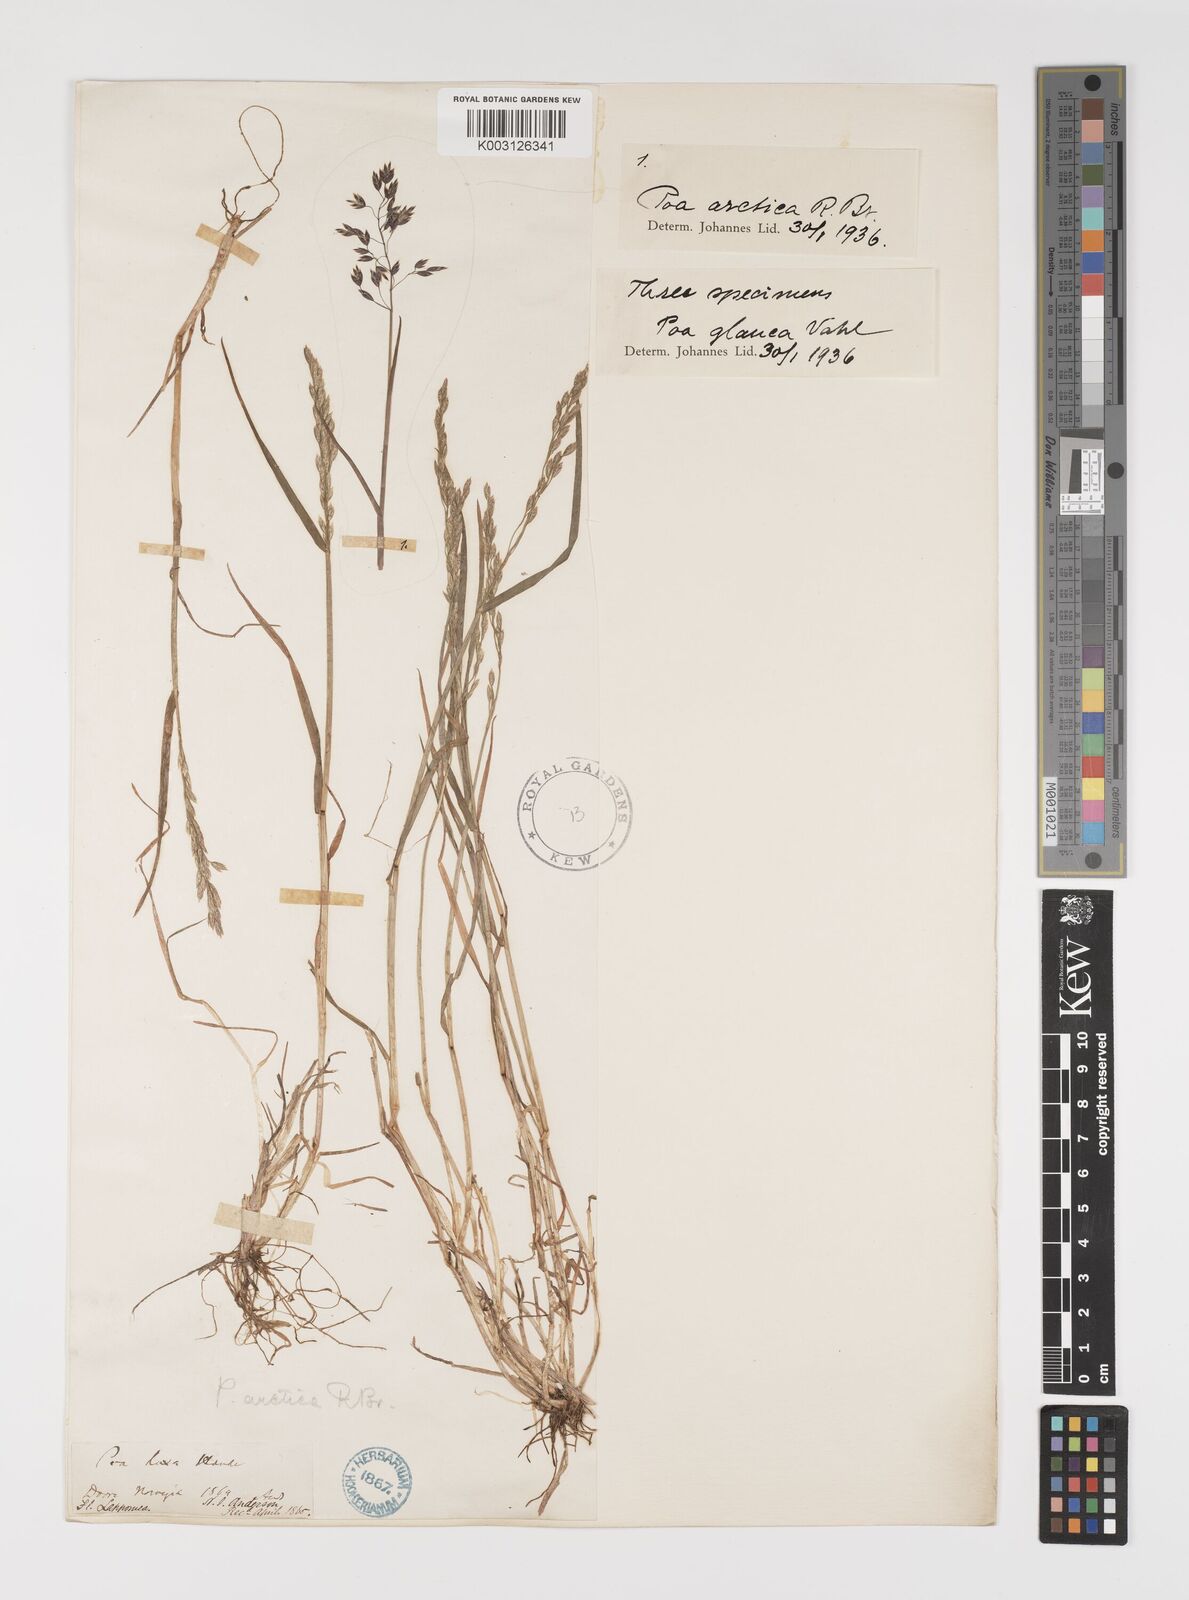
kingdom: Plantae
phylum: Tracheophyta
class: Liliopsida
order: Poales
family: Poaceae
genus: Poa
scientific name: Poa glauca
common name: Glaucous bluegrass
